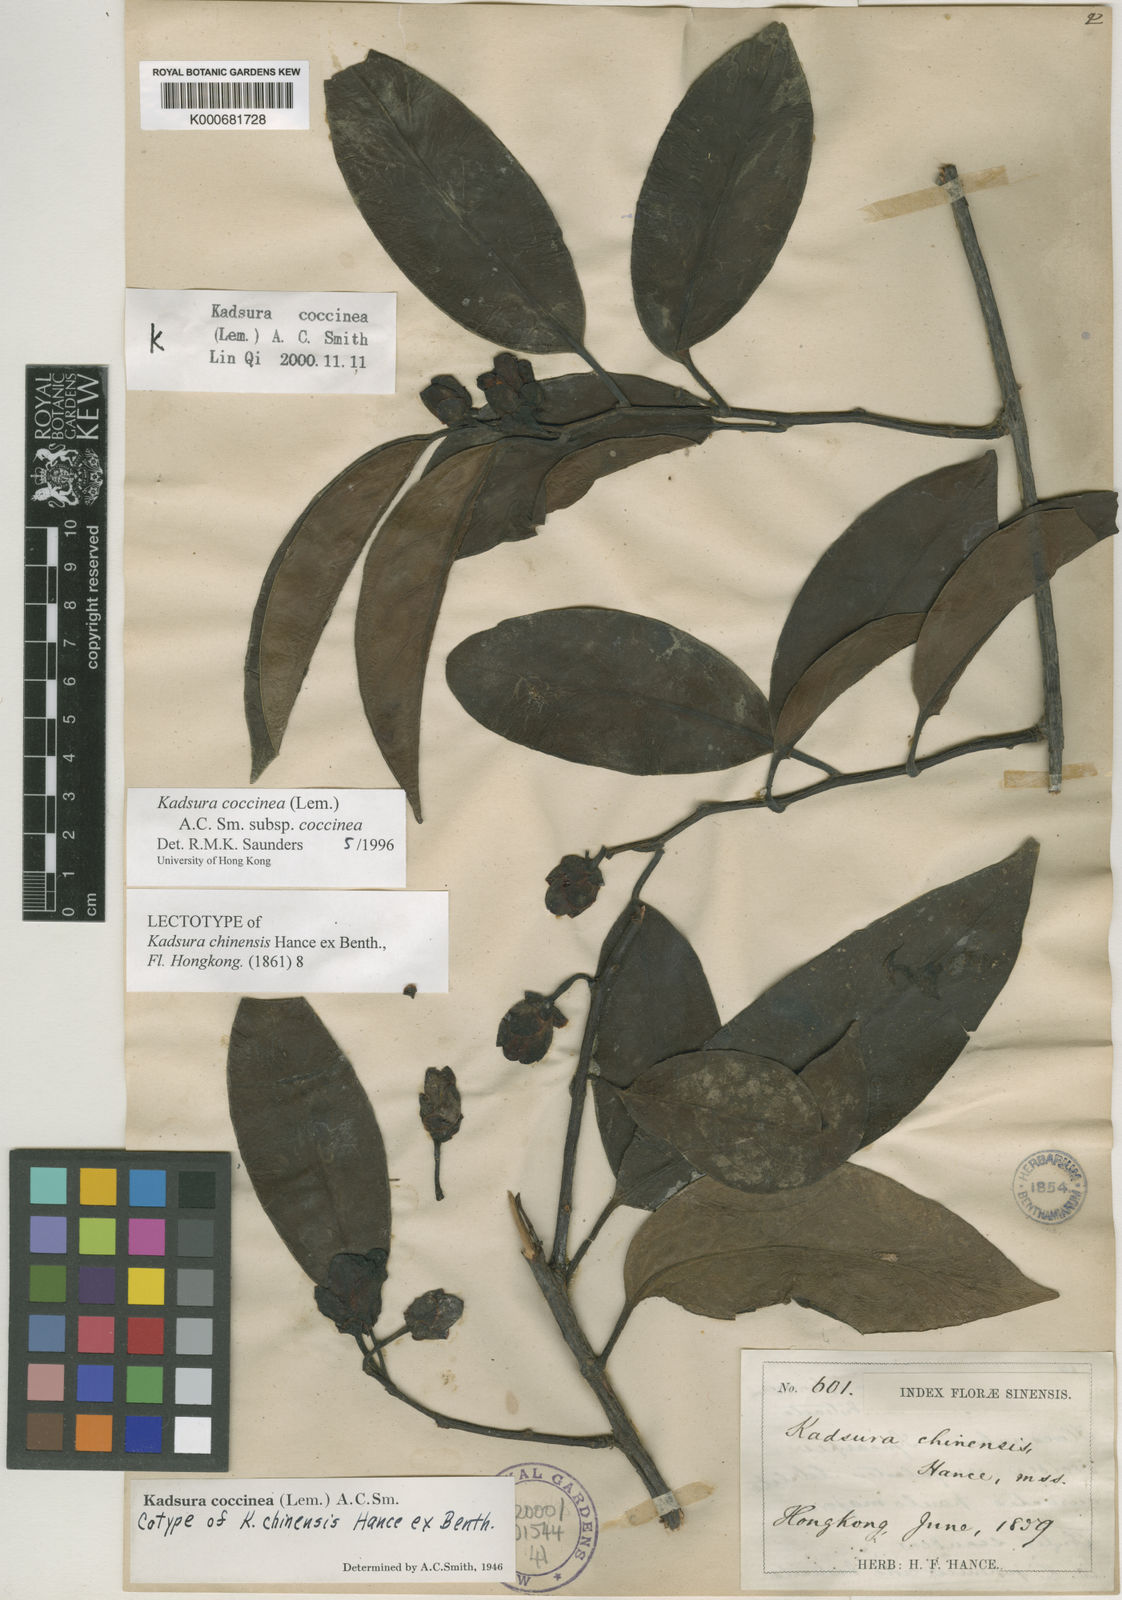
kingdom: Plantae
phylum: Tracheophyta
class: Magnoliopsida
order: Austrobaileyales
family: Schisandraceae
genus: Kadsura
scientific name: Kadsura coccinea
